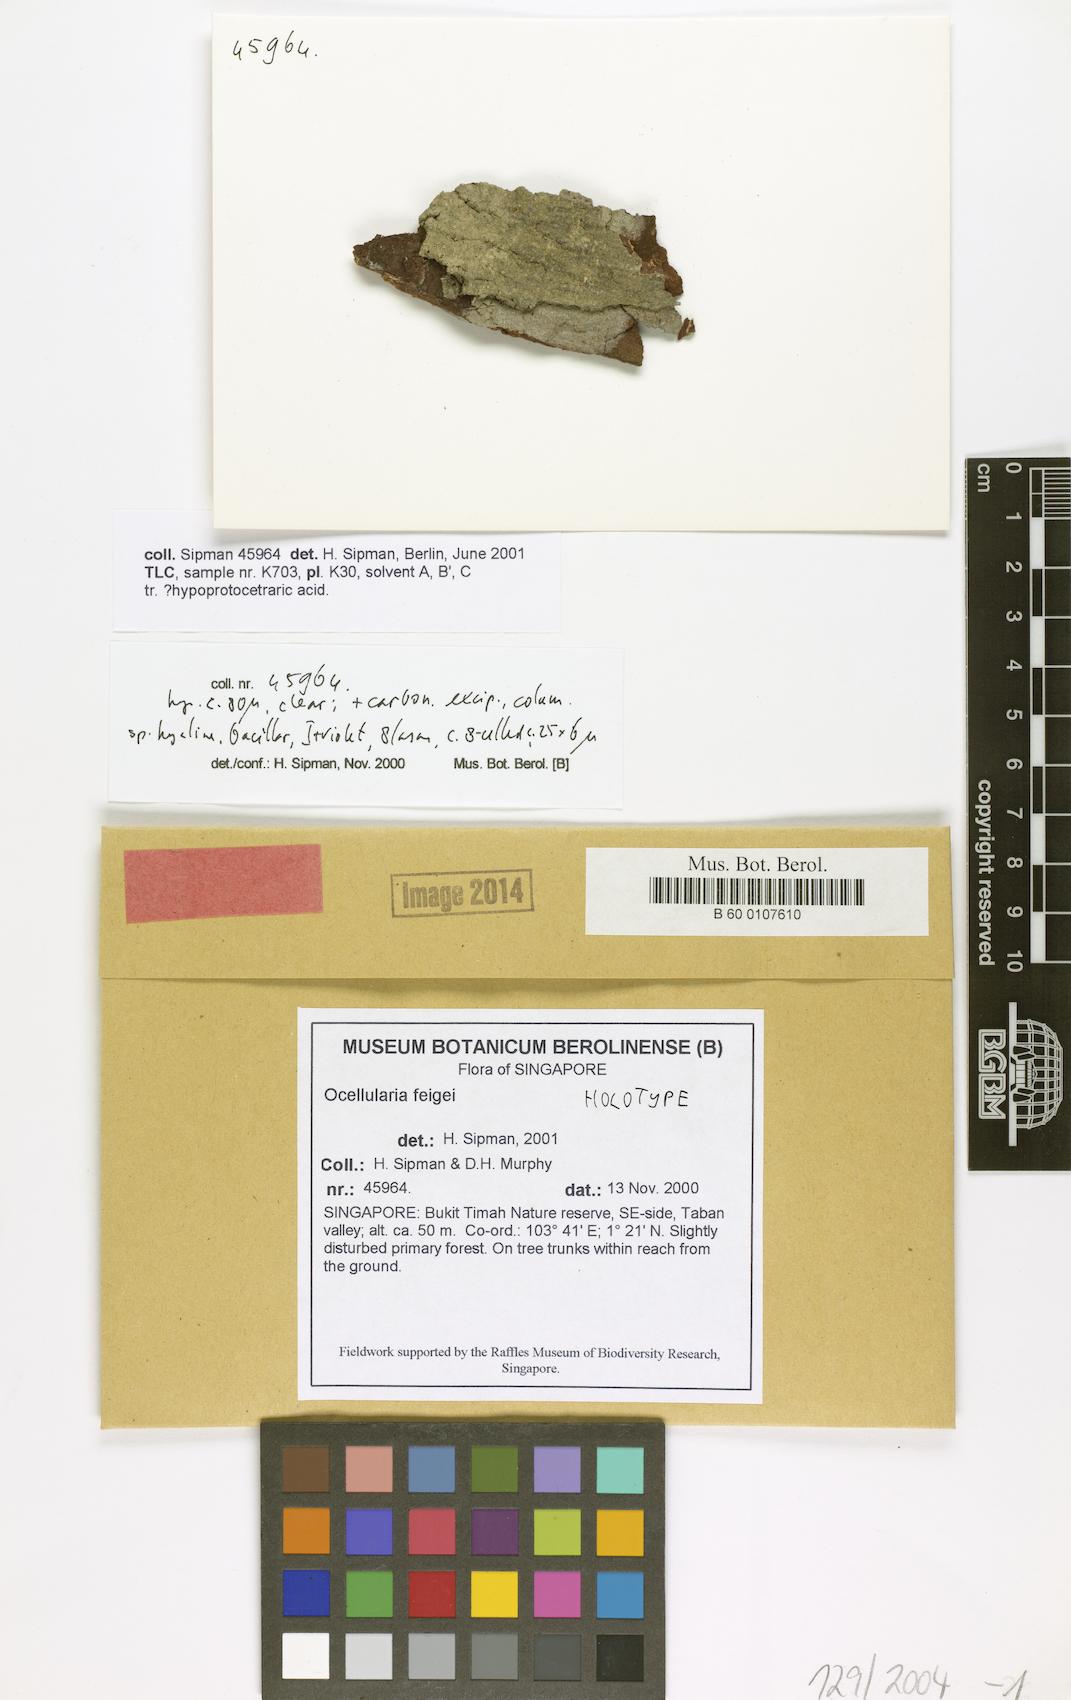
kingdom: Fungi
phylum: Ascomycota
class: Lecanoromycetes
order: Ostropales
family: Graphidaceae
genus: Rhabdodiscus
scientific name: Rhabdodiscus feigei
